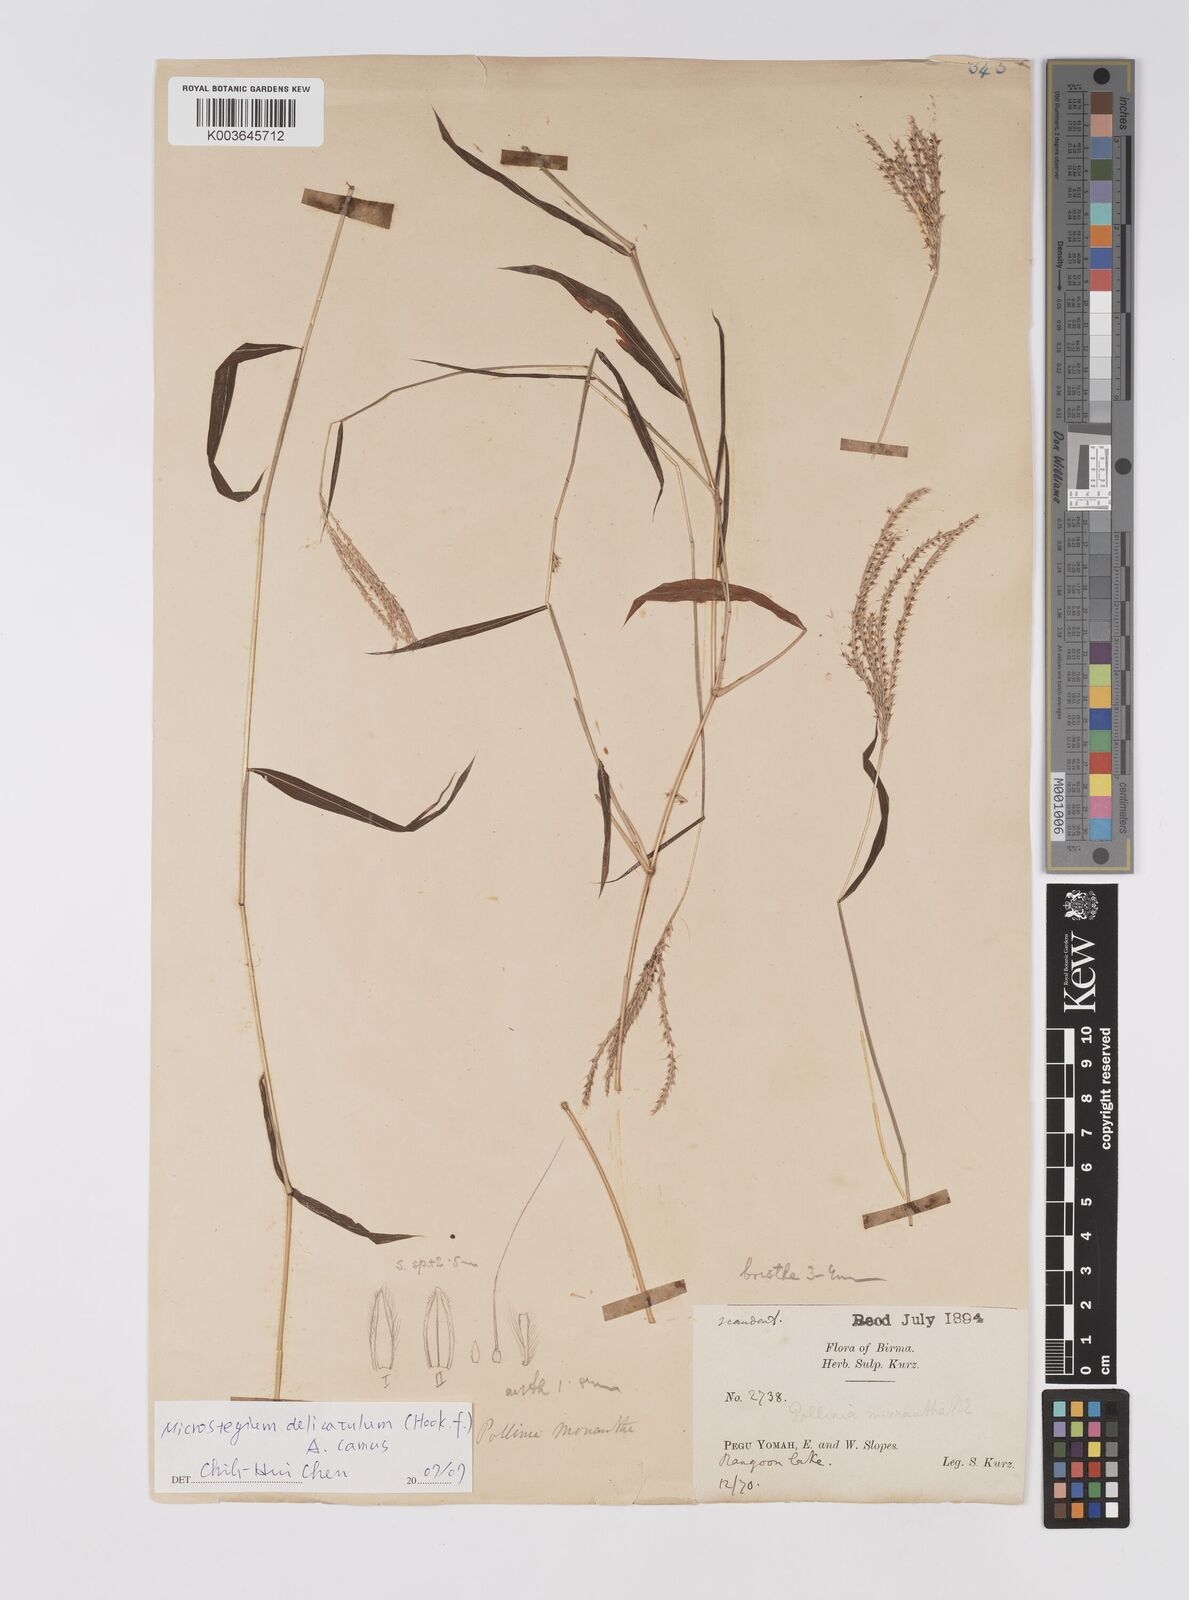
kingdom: Plantae
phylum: Tracheophyta
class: Liliopsida
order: Poales
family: Poaceae
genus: Microstegium
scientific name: Microstegium delicatulum
